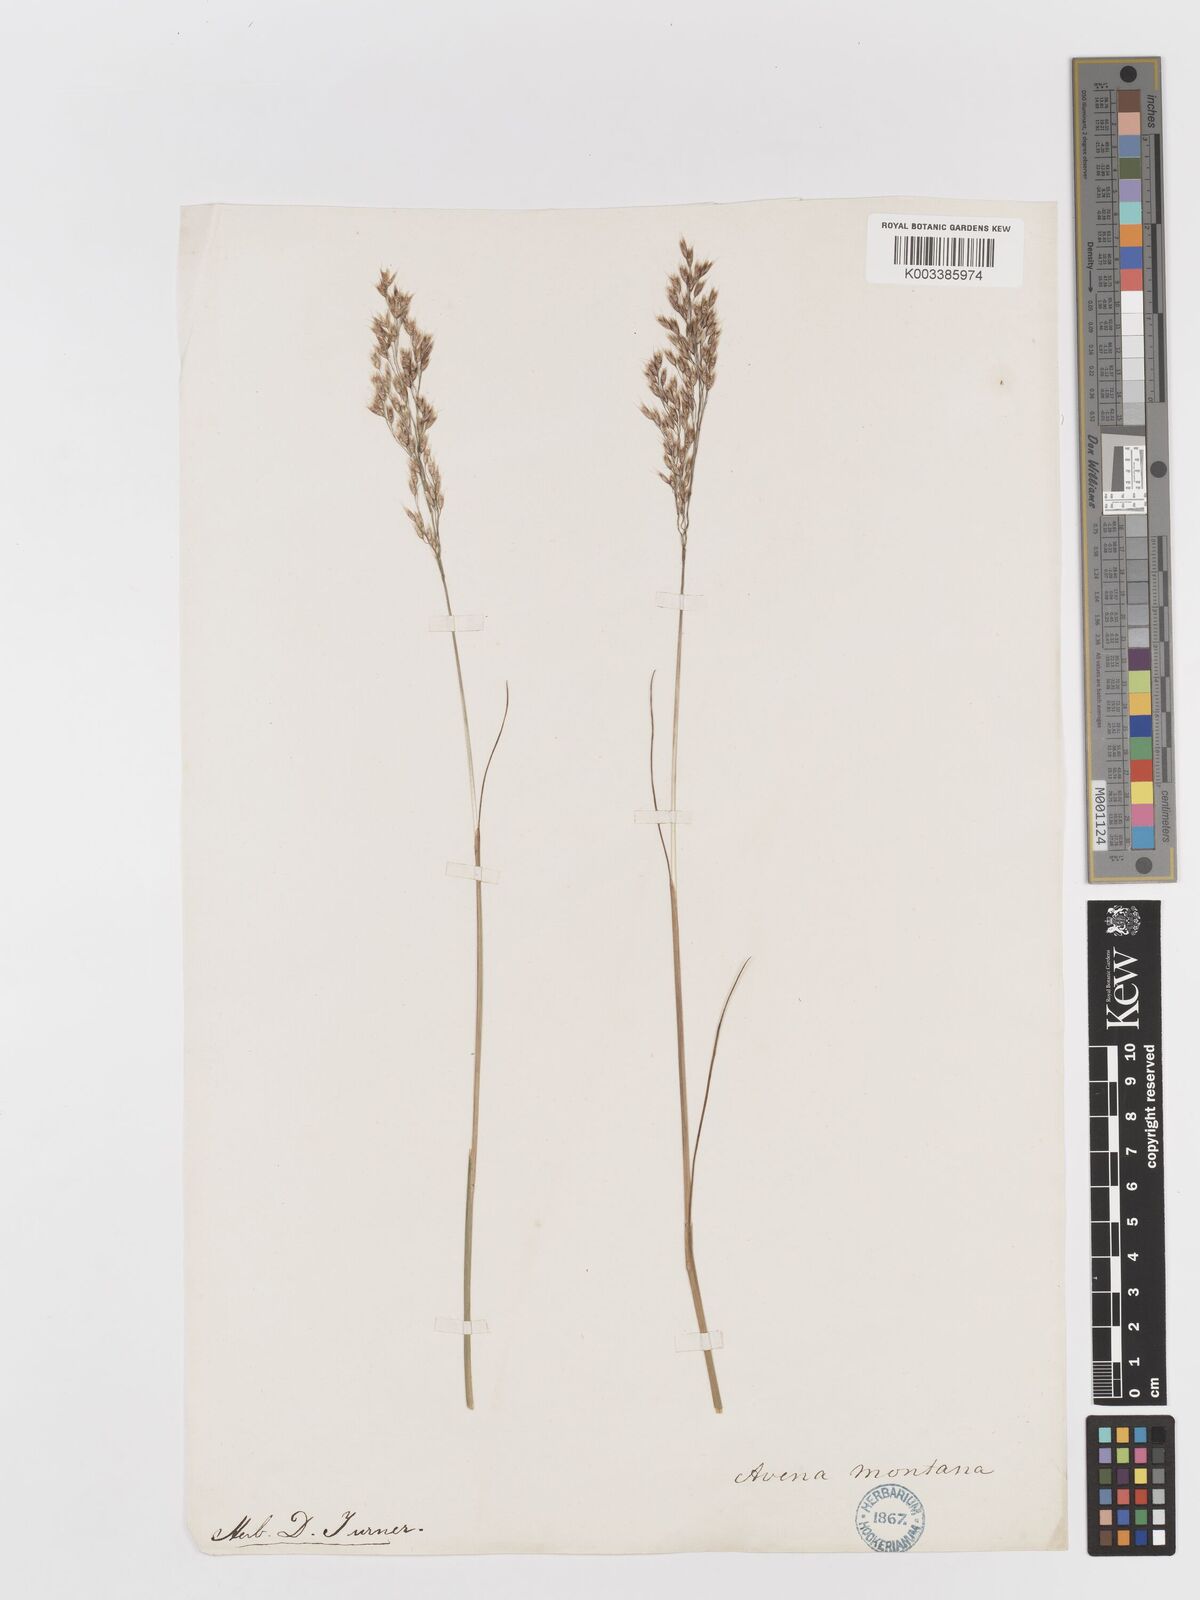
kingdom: Plantae
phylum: Tracheophyta
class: Liliopsida
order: Poales
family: Poaceae
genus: Avenella
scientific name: Avenella flexuosa
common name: Wavy hairgrass
